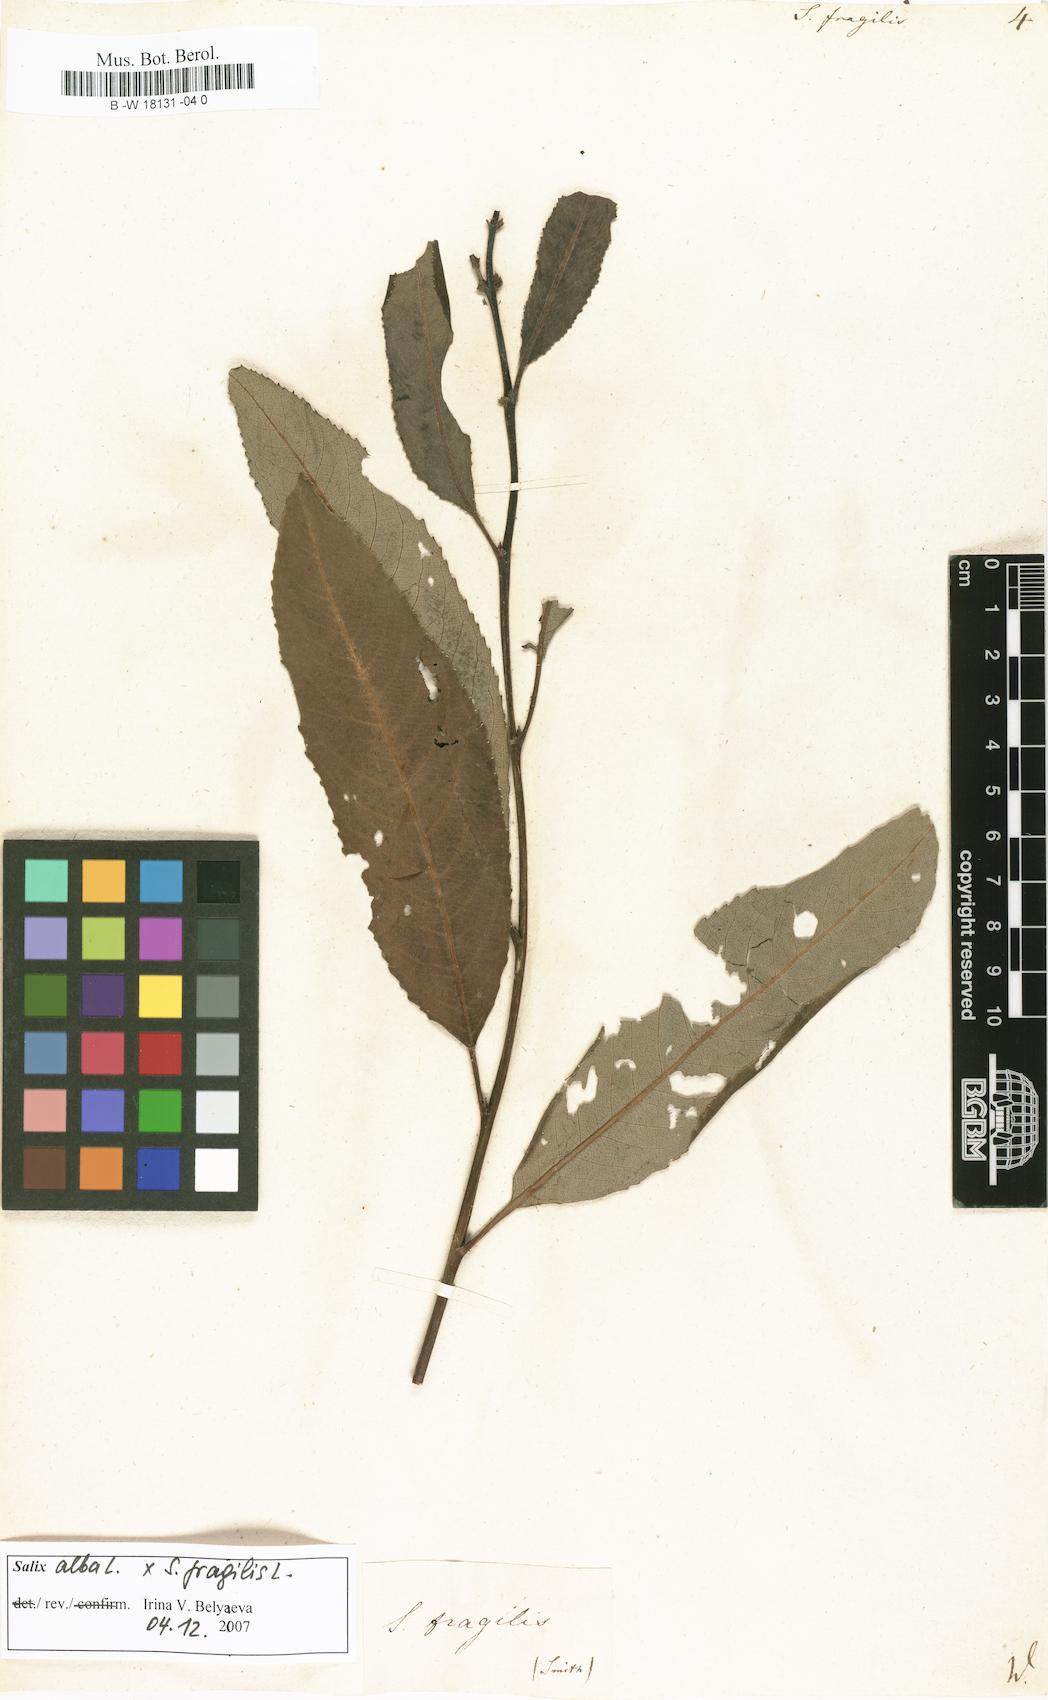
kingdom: Plantae
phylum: Tracheophyta
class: Magnoliopsida
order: Malpighiales
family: Salicaceae
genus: Salix
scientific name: Salix fragilis
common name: Crack willow
